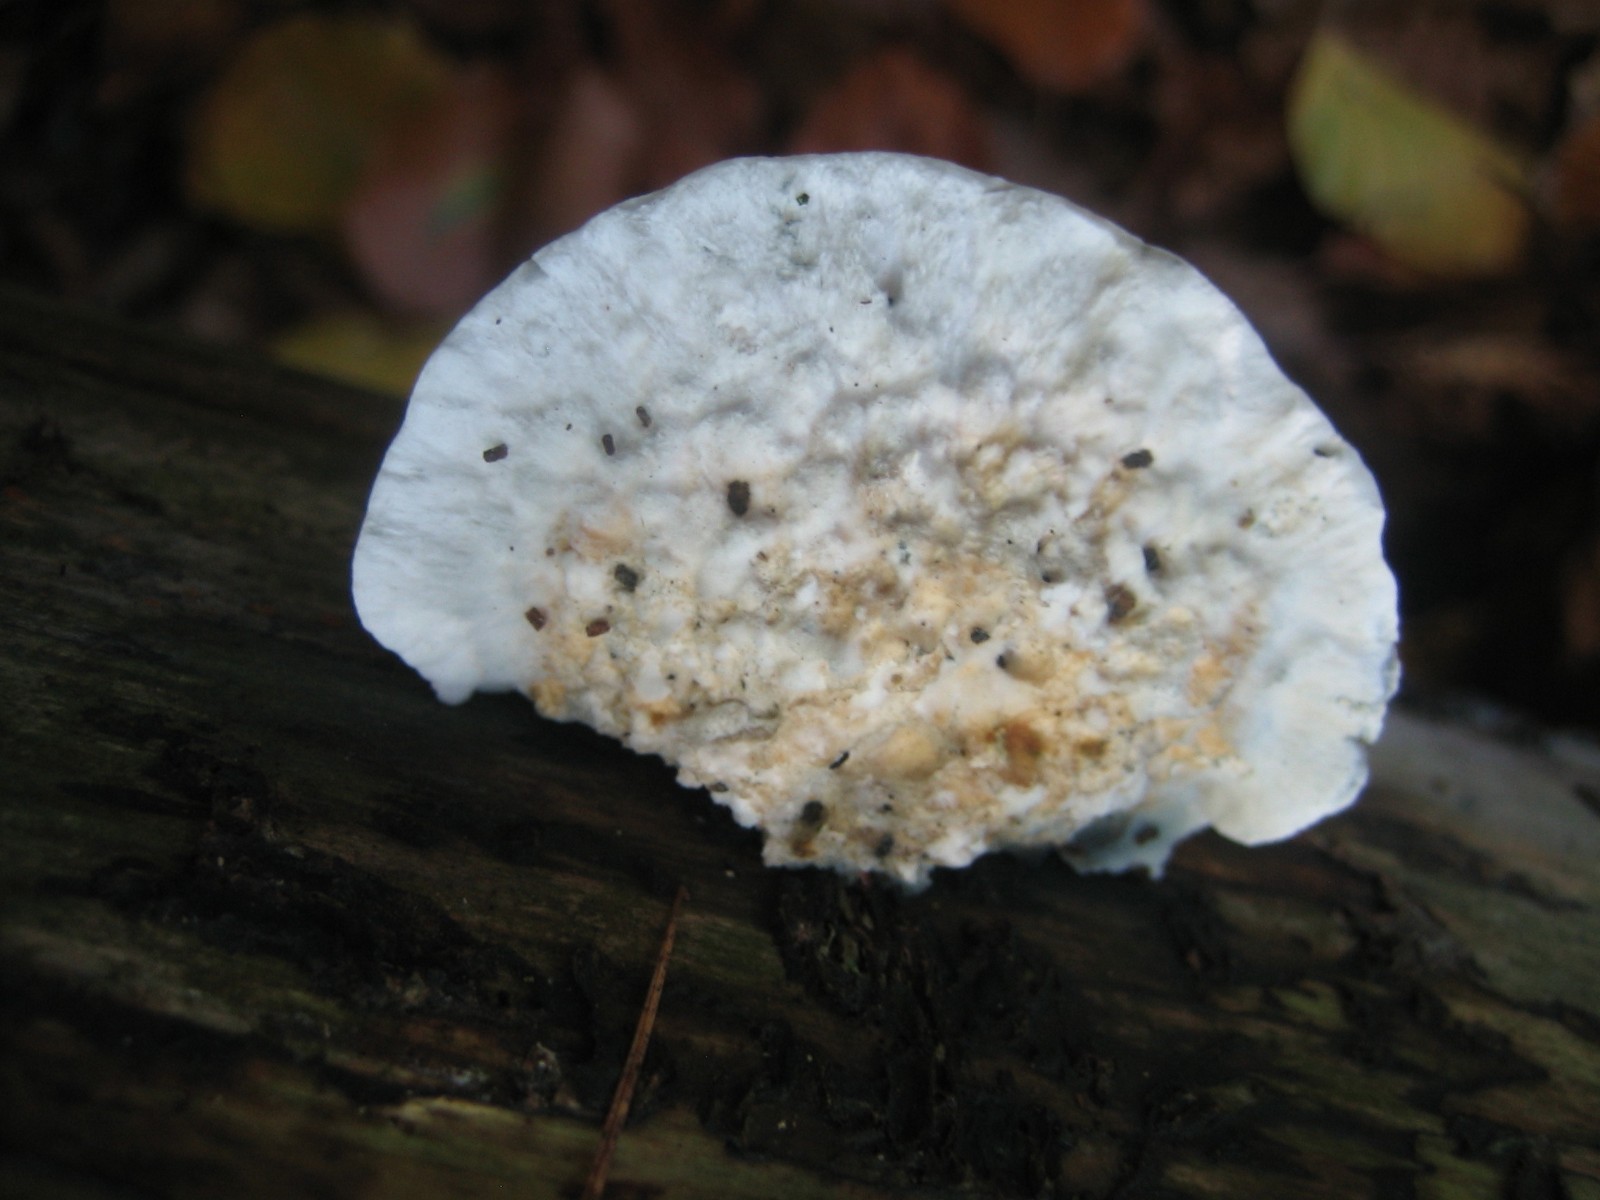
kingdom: Fungi
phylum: Basidiomycota
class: Agaricomycetes
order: Polyporales
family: Polyporaceae
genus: Cyanosporus
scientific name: Cyanosporus caesius
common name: blålig kødporesvamp
